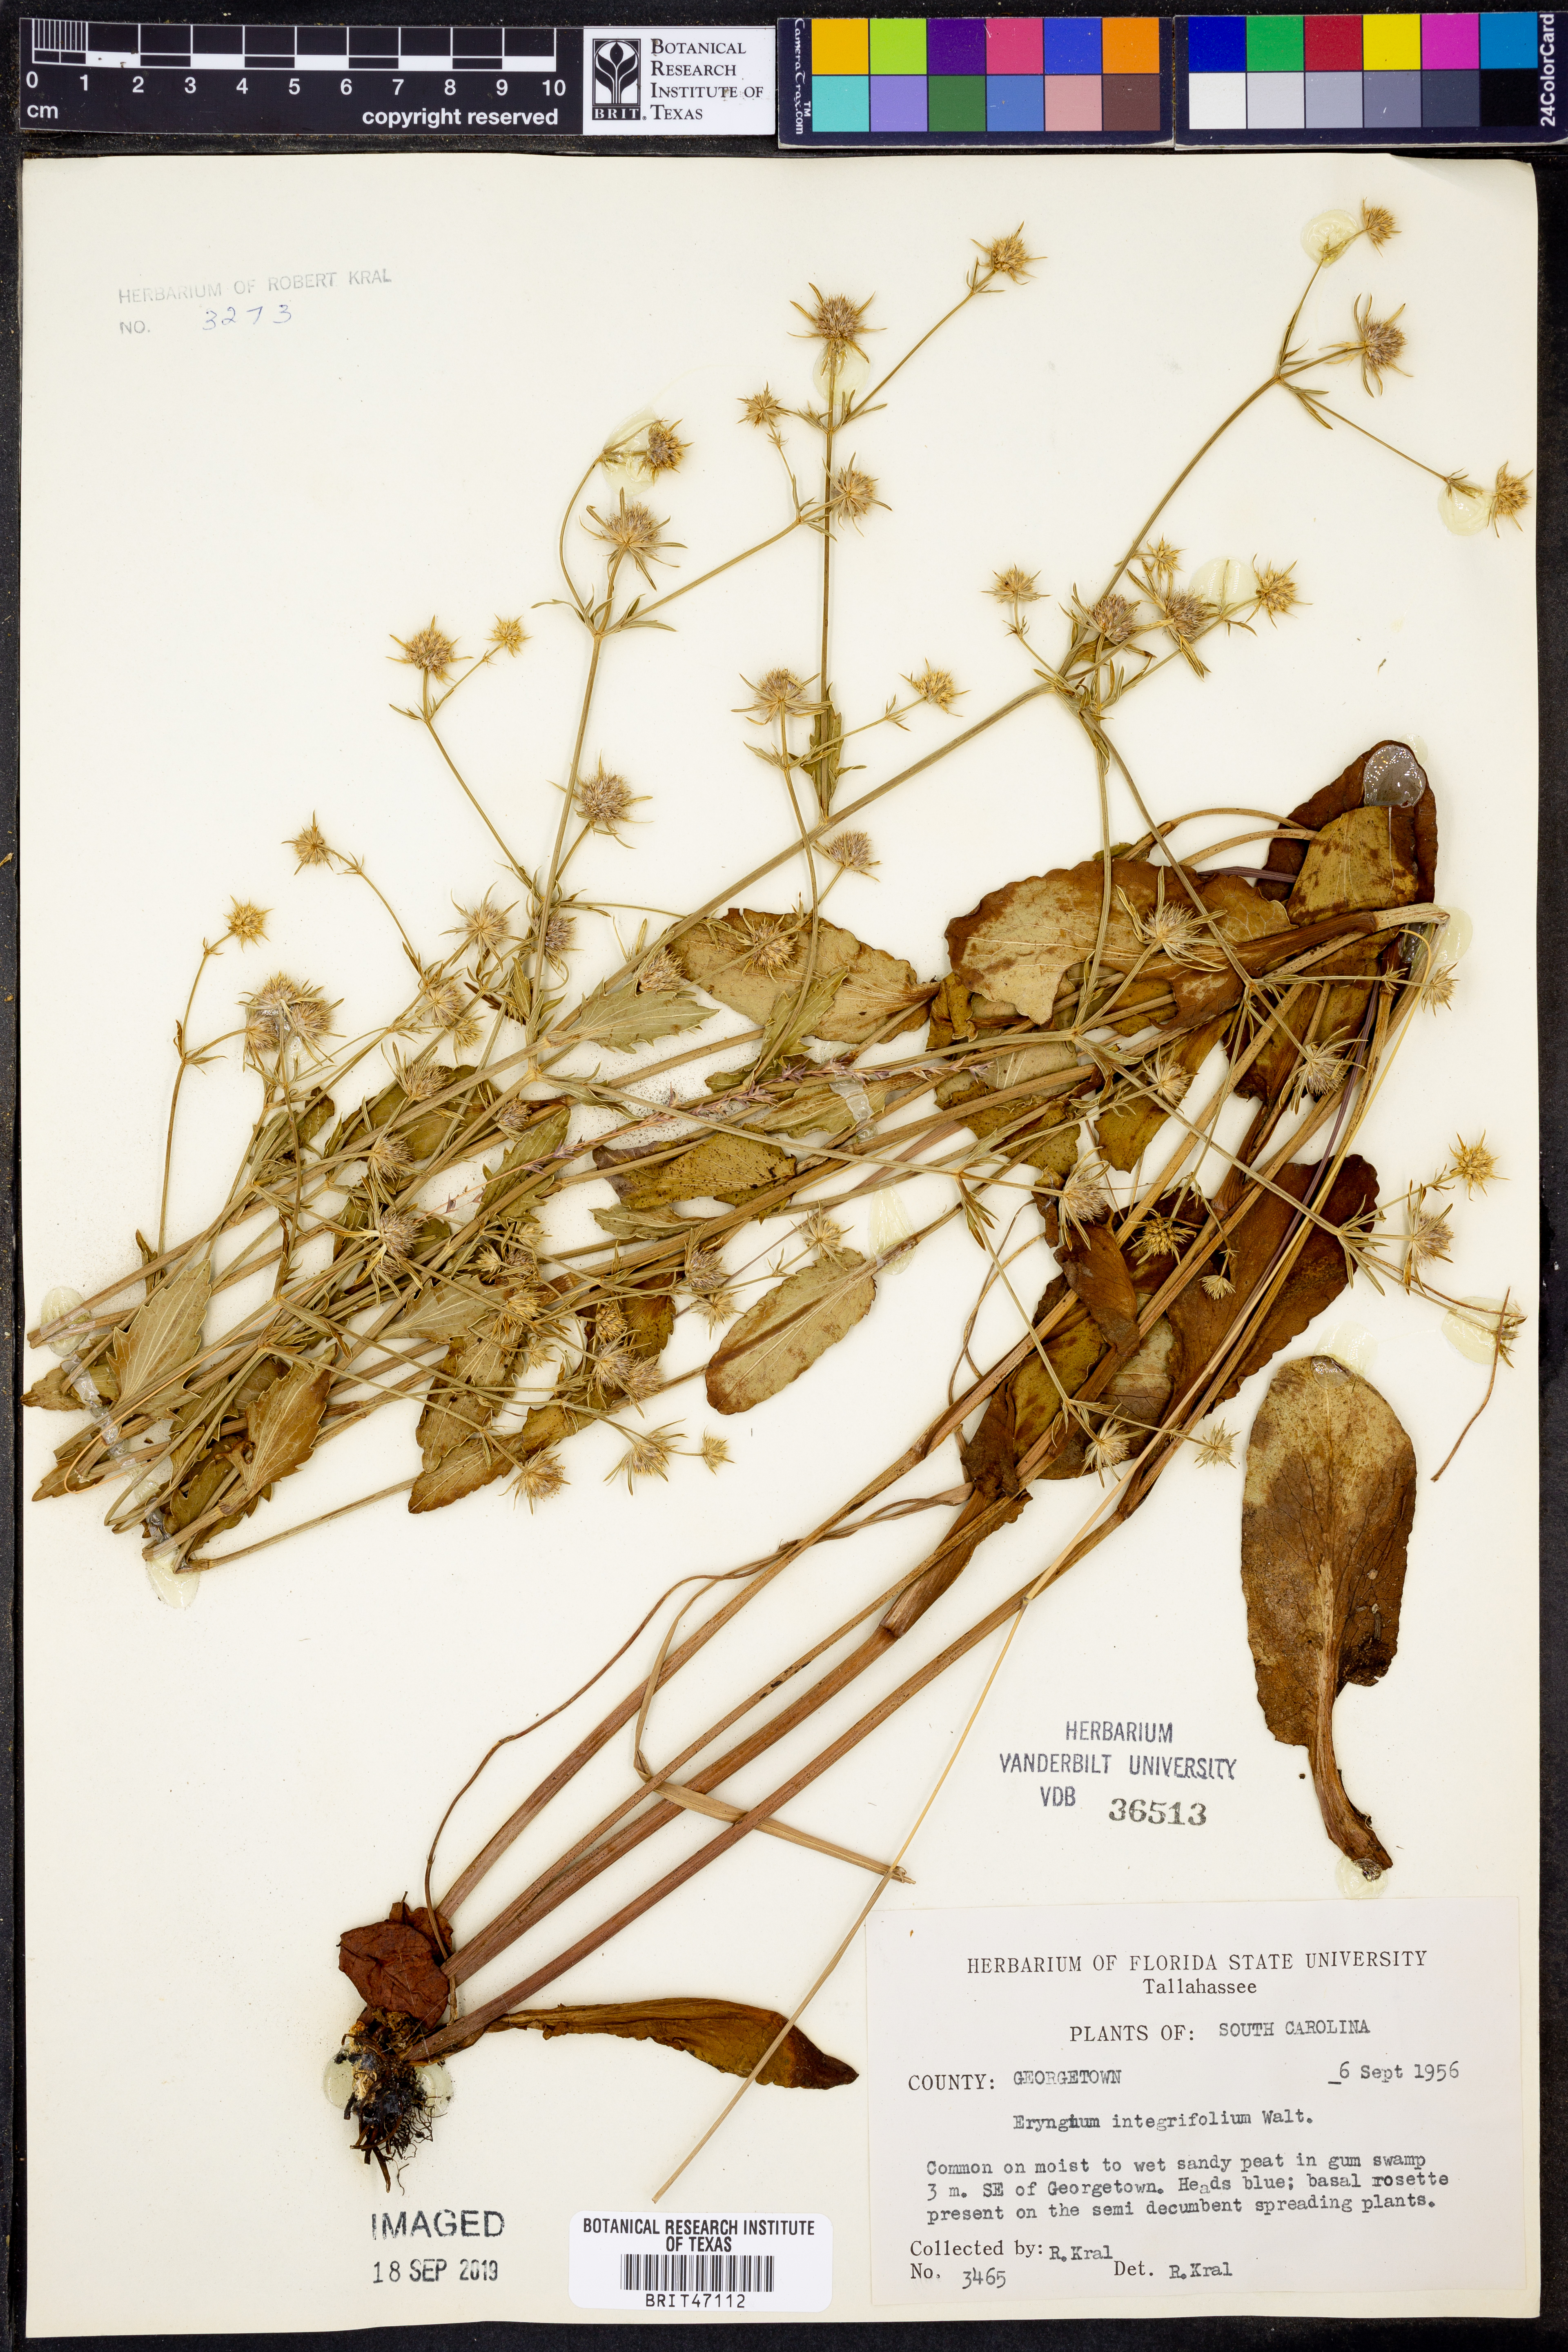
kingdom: Plantae
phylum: Tracheophyta
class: Magnoliopsida
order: Apiales
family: Apiaceae
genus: Eryngium
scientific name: Eryngium integrifolium
